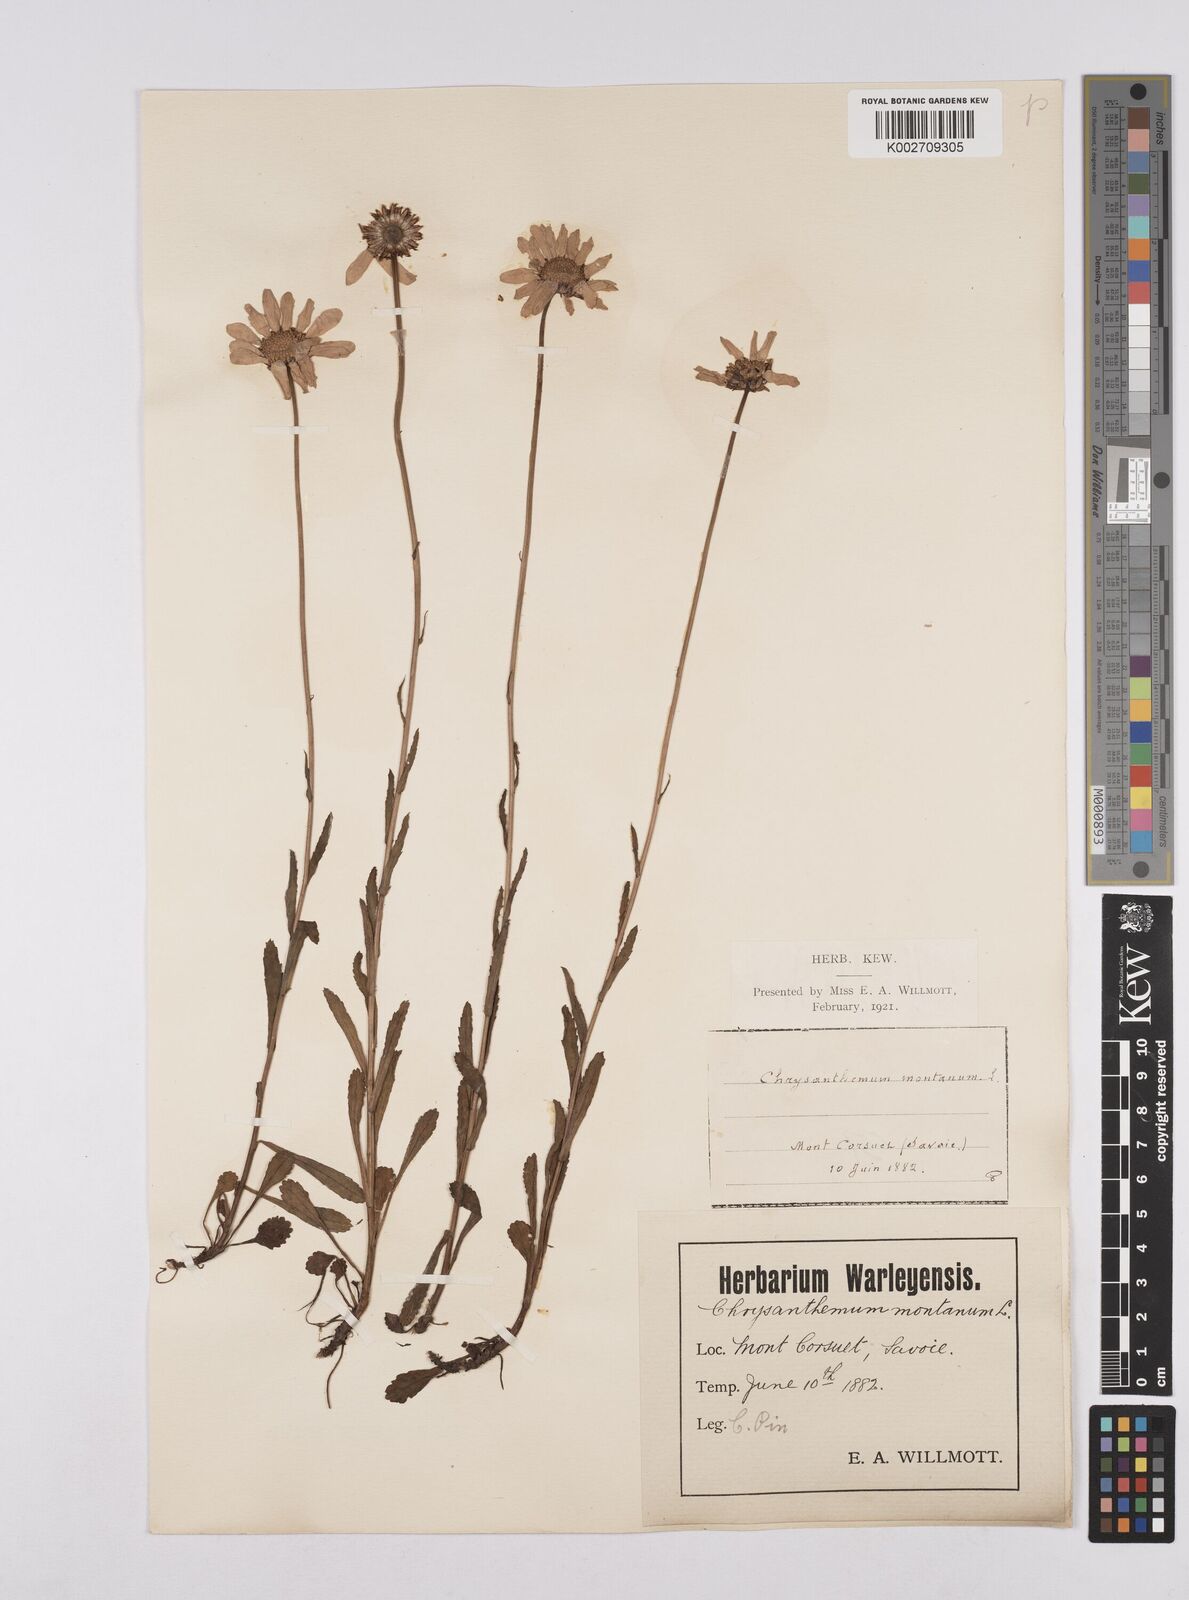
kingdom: Plantae
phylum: Tracheophyta
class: Magnoliopsida
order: Asterales
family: Asteraceae
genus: Matricaria
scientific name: Matricaria chamomilla
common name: Scented mayweed
